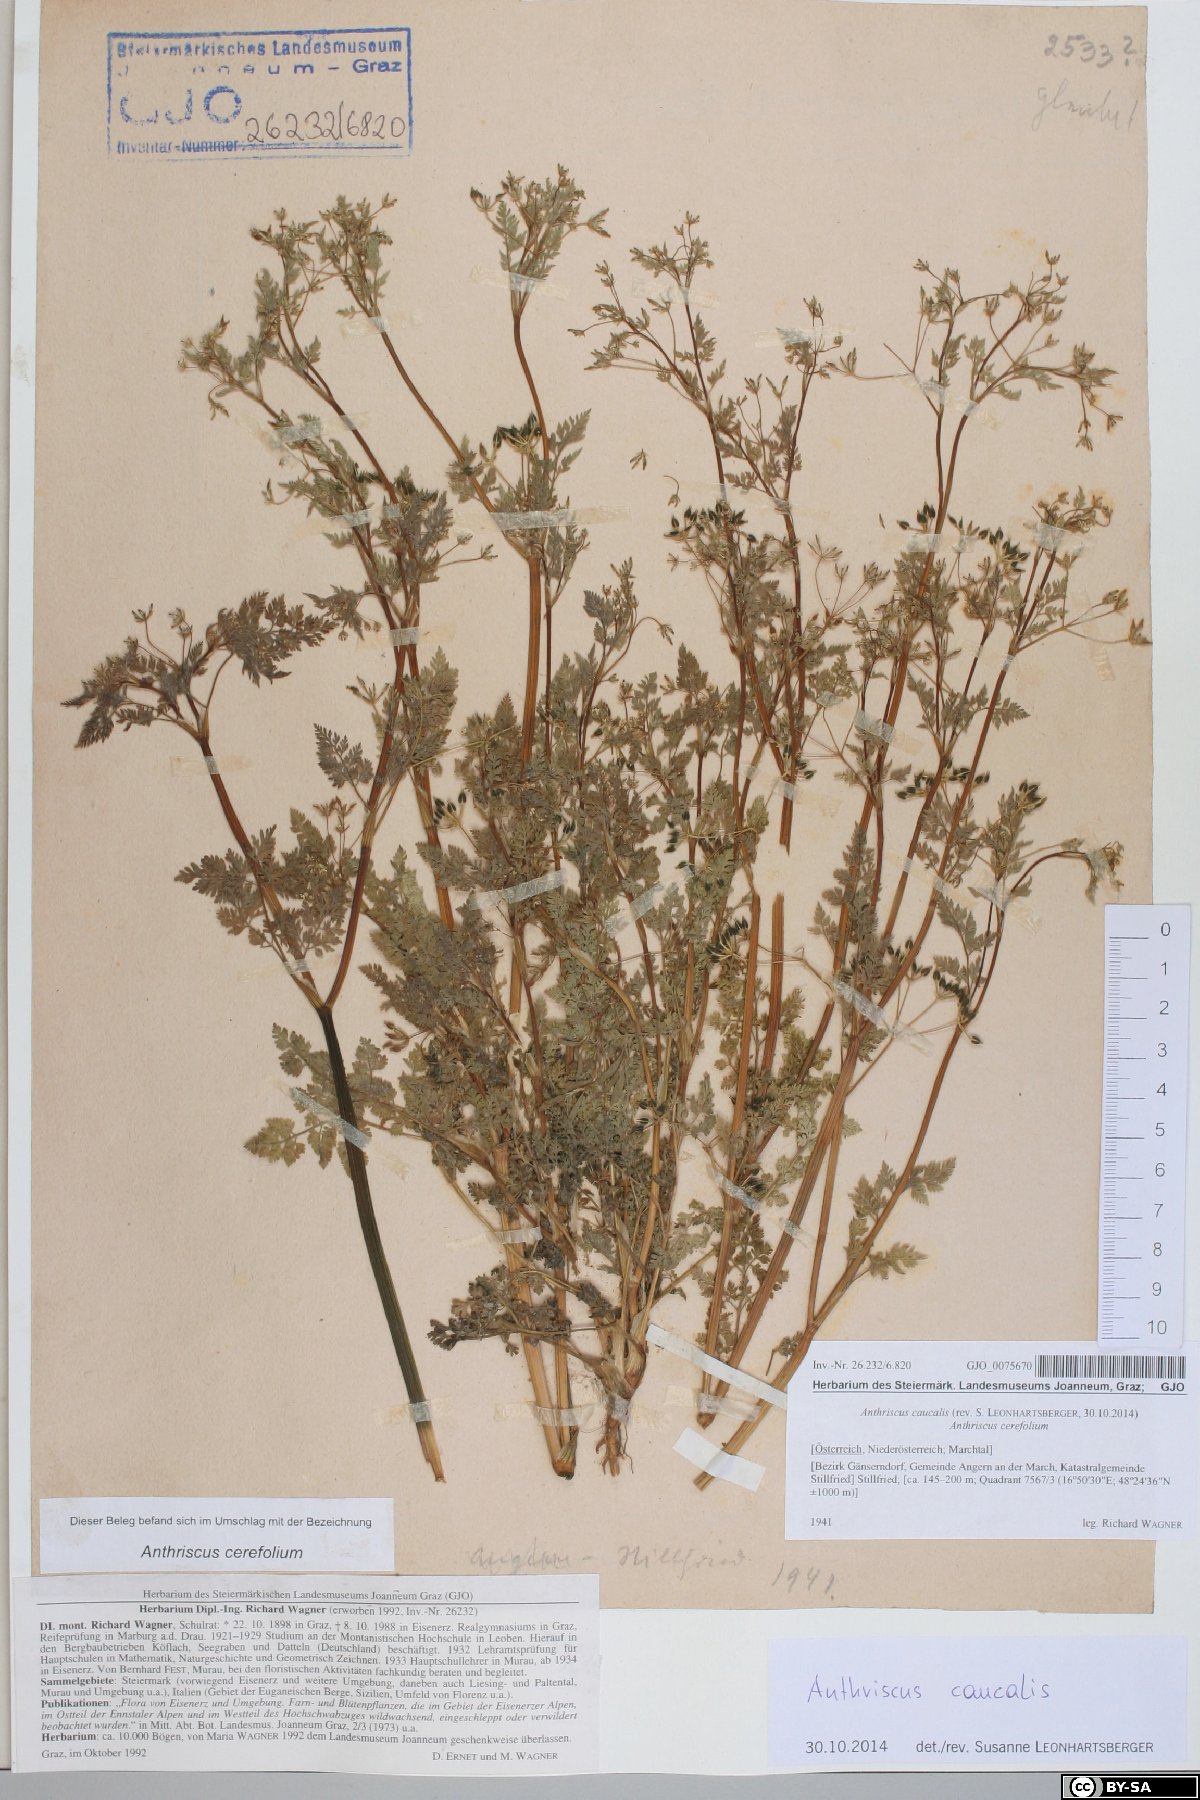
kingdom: Plantae
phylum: Tracheophyta
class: Magnoliopsida
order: Apiales
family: Apiaceae
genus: Anthriscus
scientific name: Anthriscus caucalis
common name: Bur chervil
